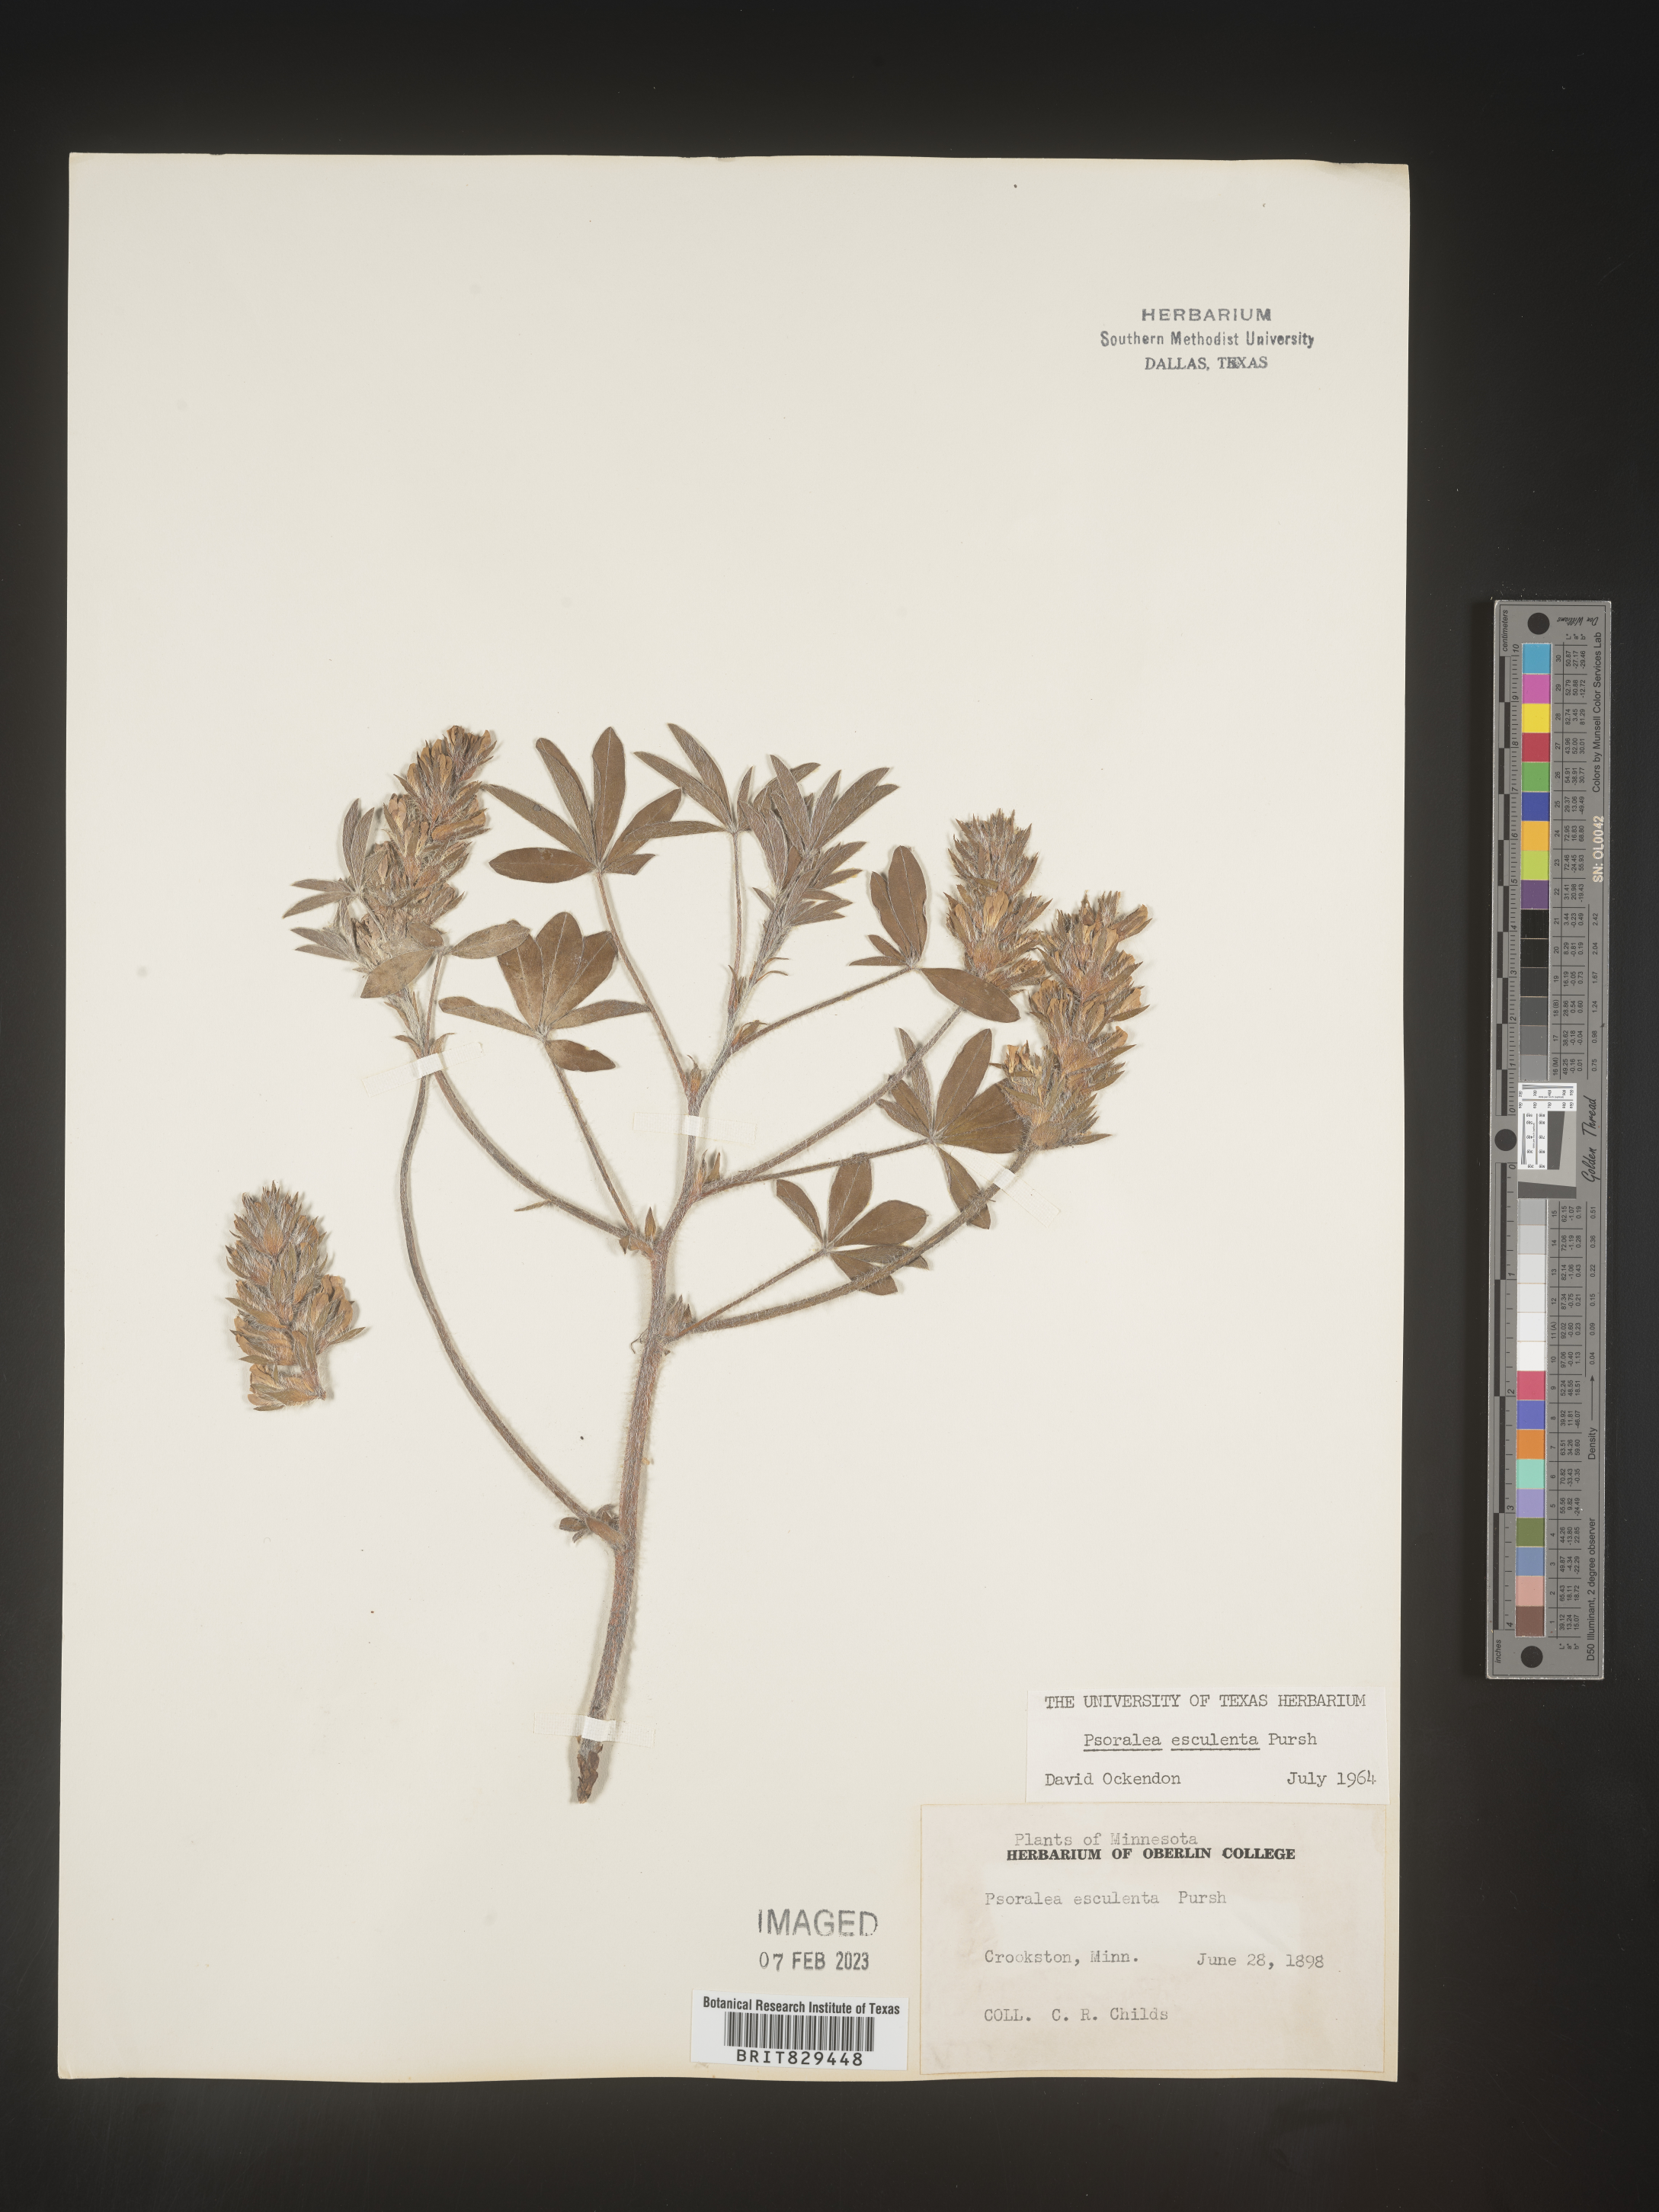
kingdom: Plantae
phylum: Tracheophyta
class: Magnoliopsida
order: Fabales
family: Fabaceae
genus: Psoralea
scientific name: Psoralea
